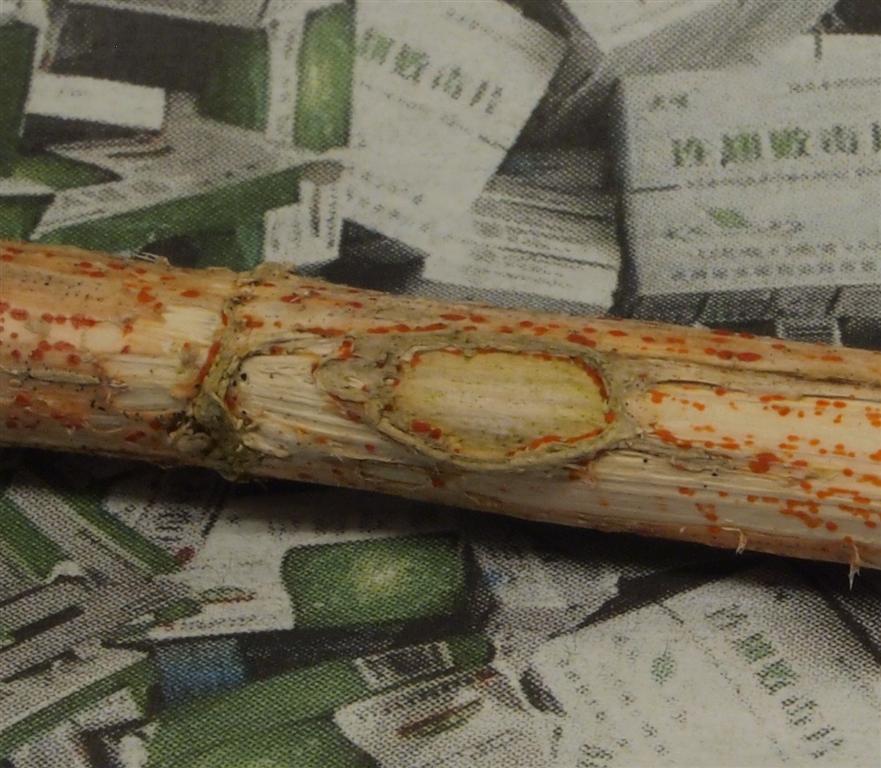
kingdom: Fungi
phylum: Ascomycota
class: Leotiomycetes
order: Helotiales
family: Calloriaceae
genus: Calloria
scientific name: Calloria urticae
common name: nælde-orangeskive
